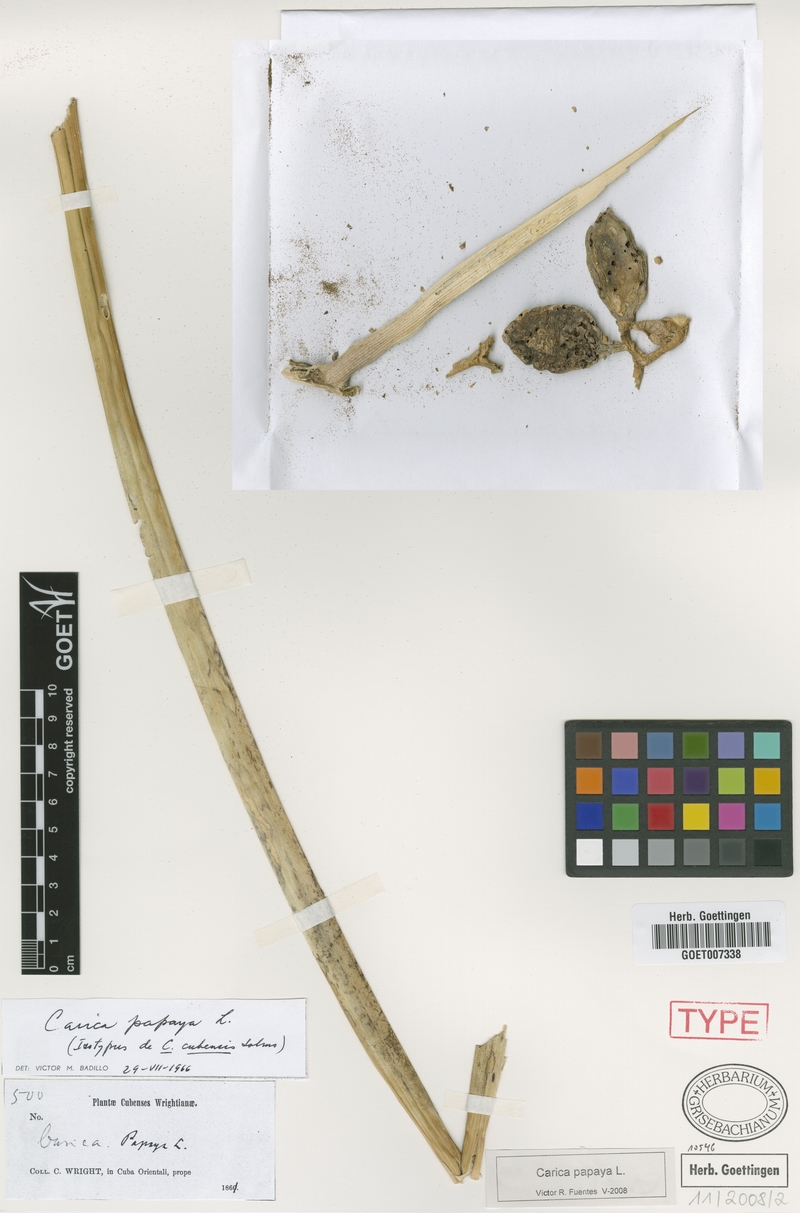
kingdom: Plantae
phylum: Tracheophyta
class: Magnoliopsida
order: Brassicales
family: Caricaceae
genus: Carica
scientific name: Carica papaya
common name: Papaya
